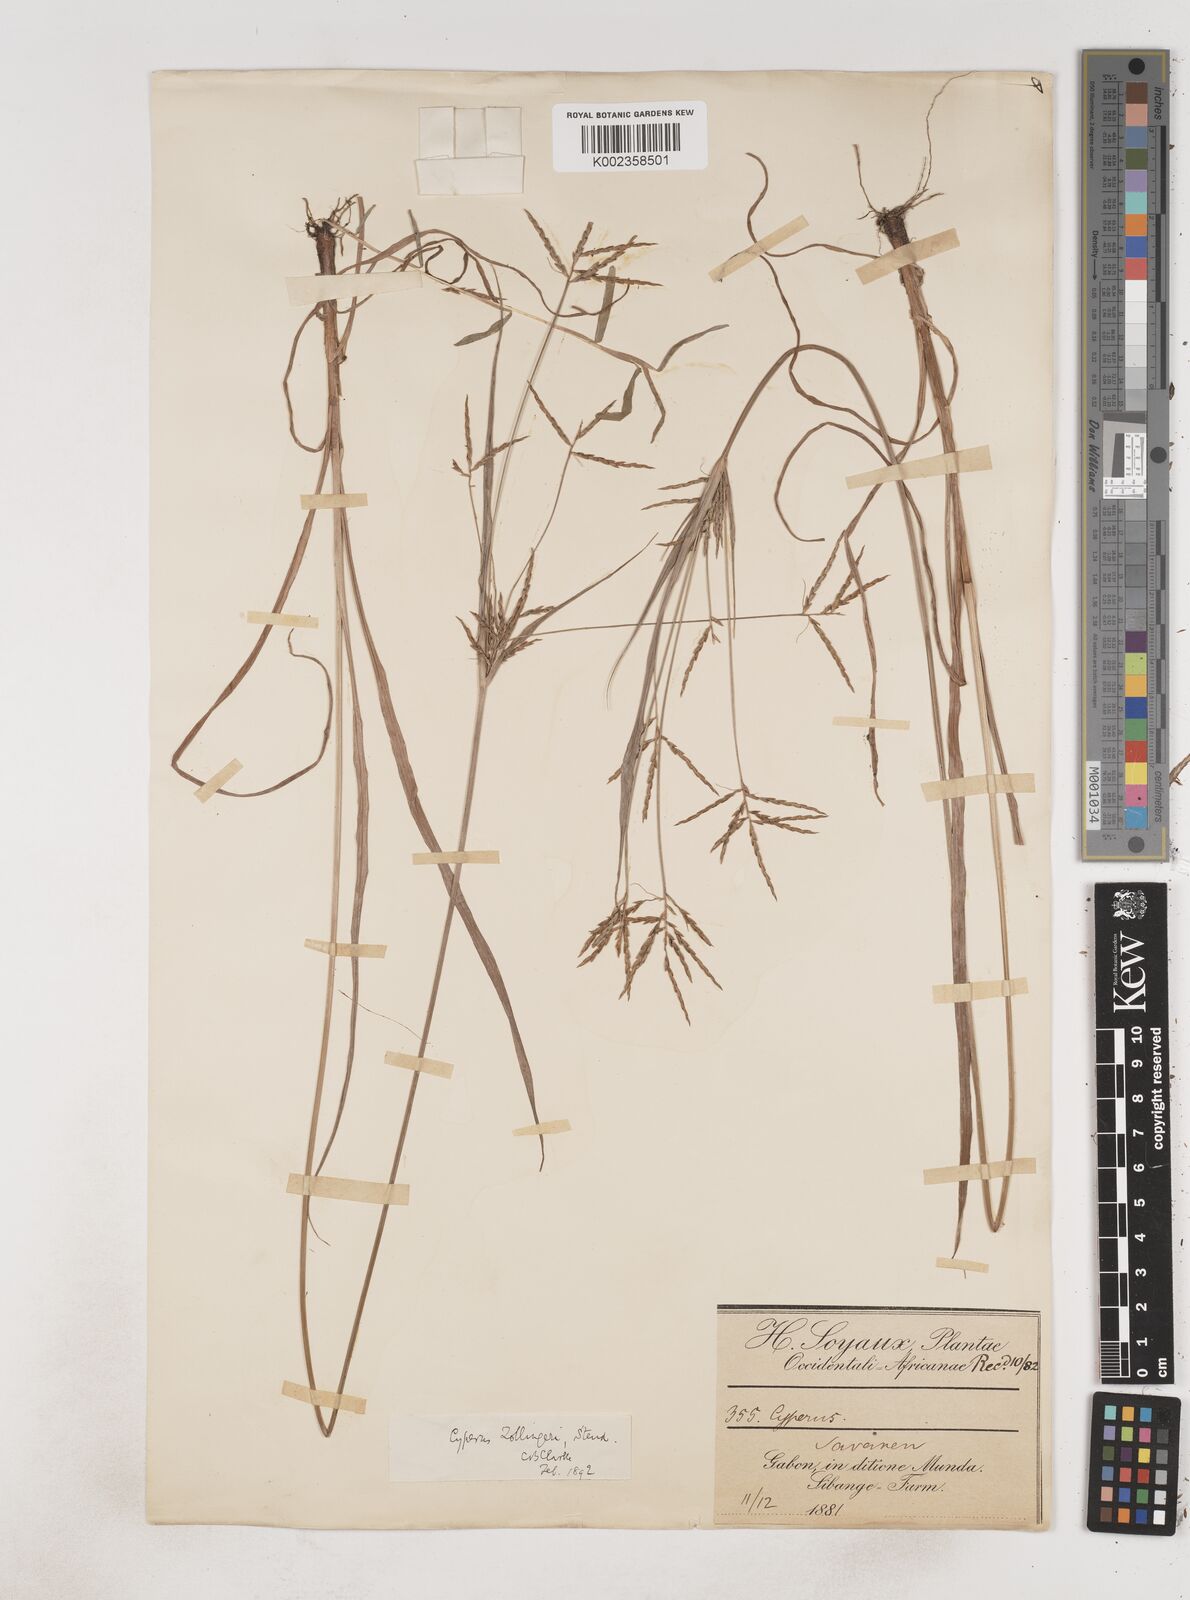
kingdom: Plantae
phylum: Tracheophyta
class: Liliopsida
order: Poales
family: Cyperaceae
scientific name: Cyperaceae
